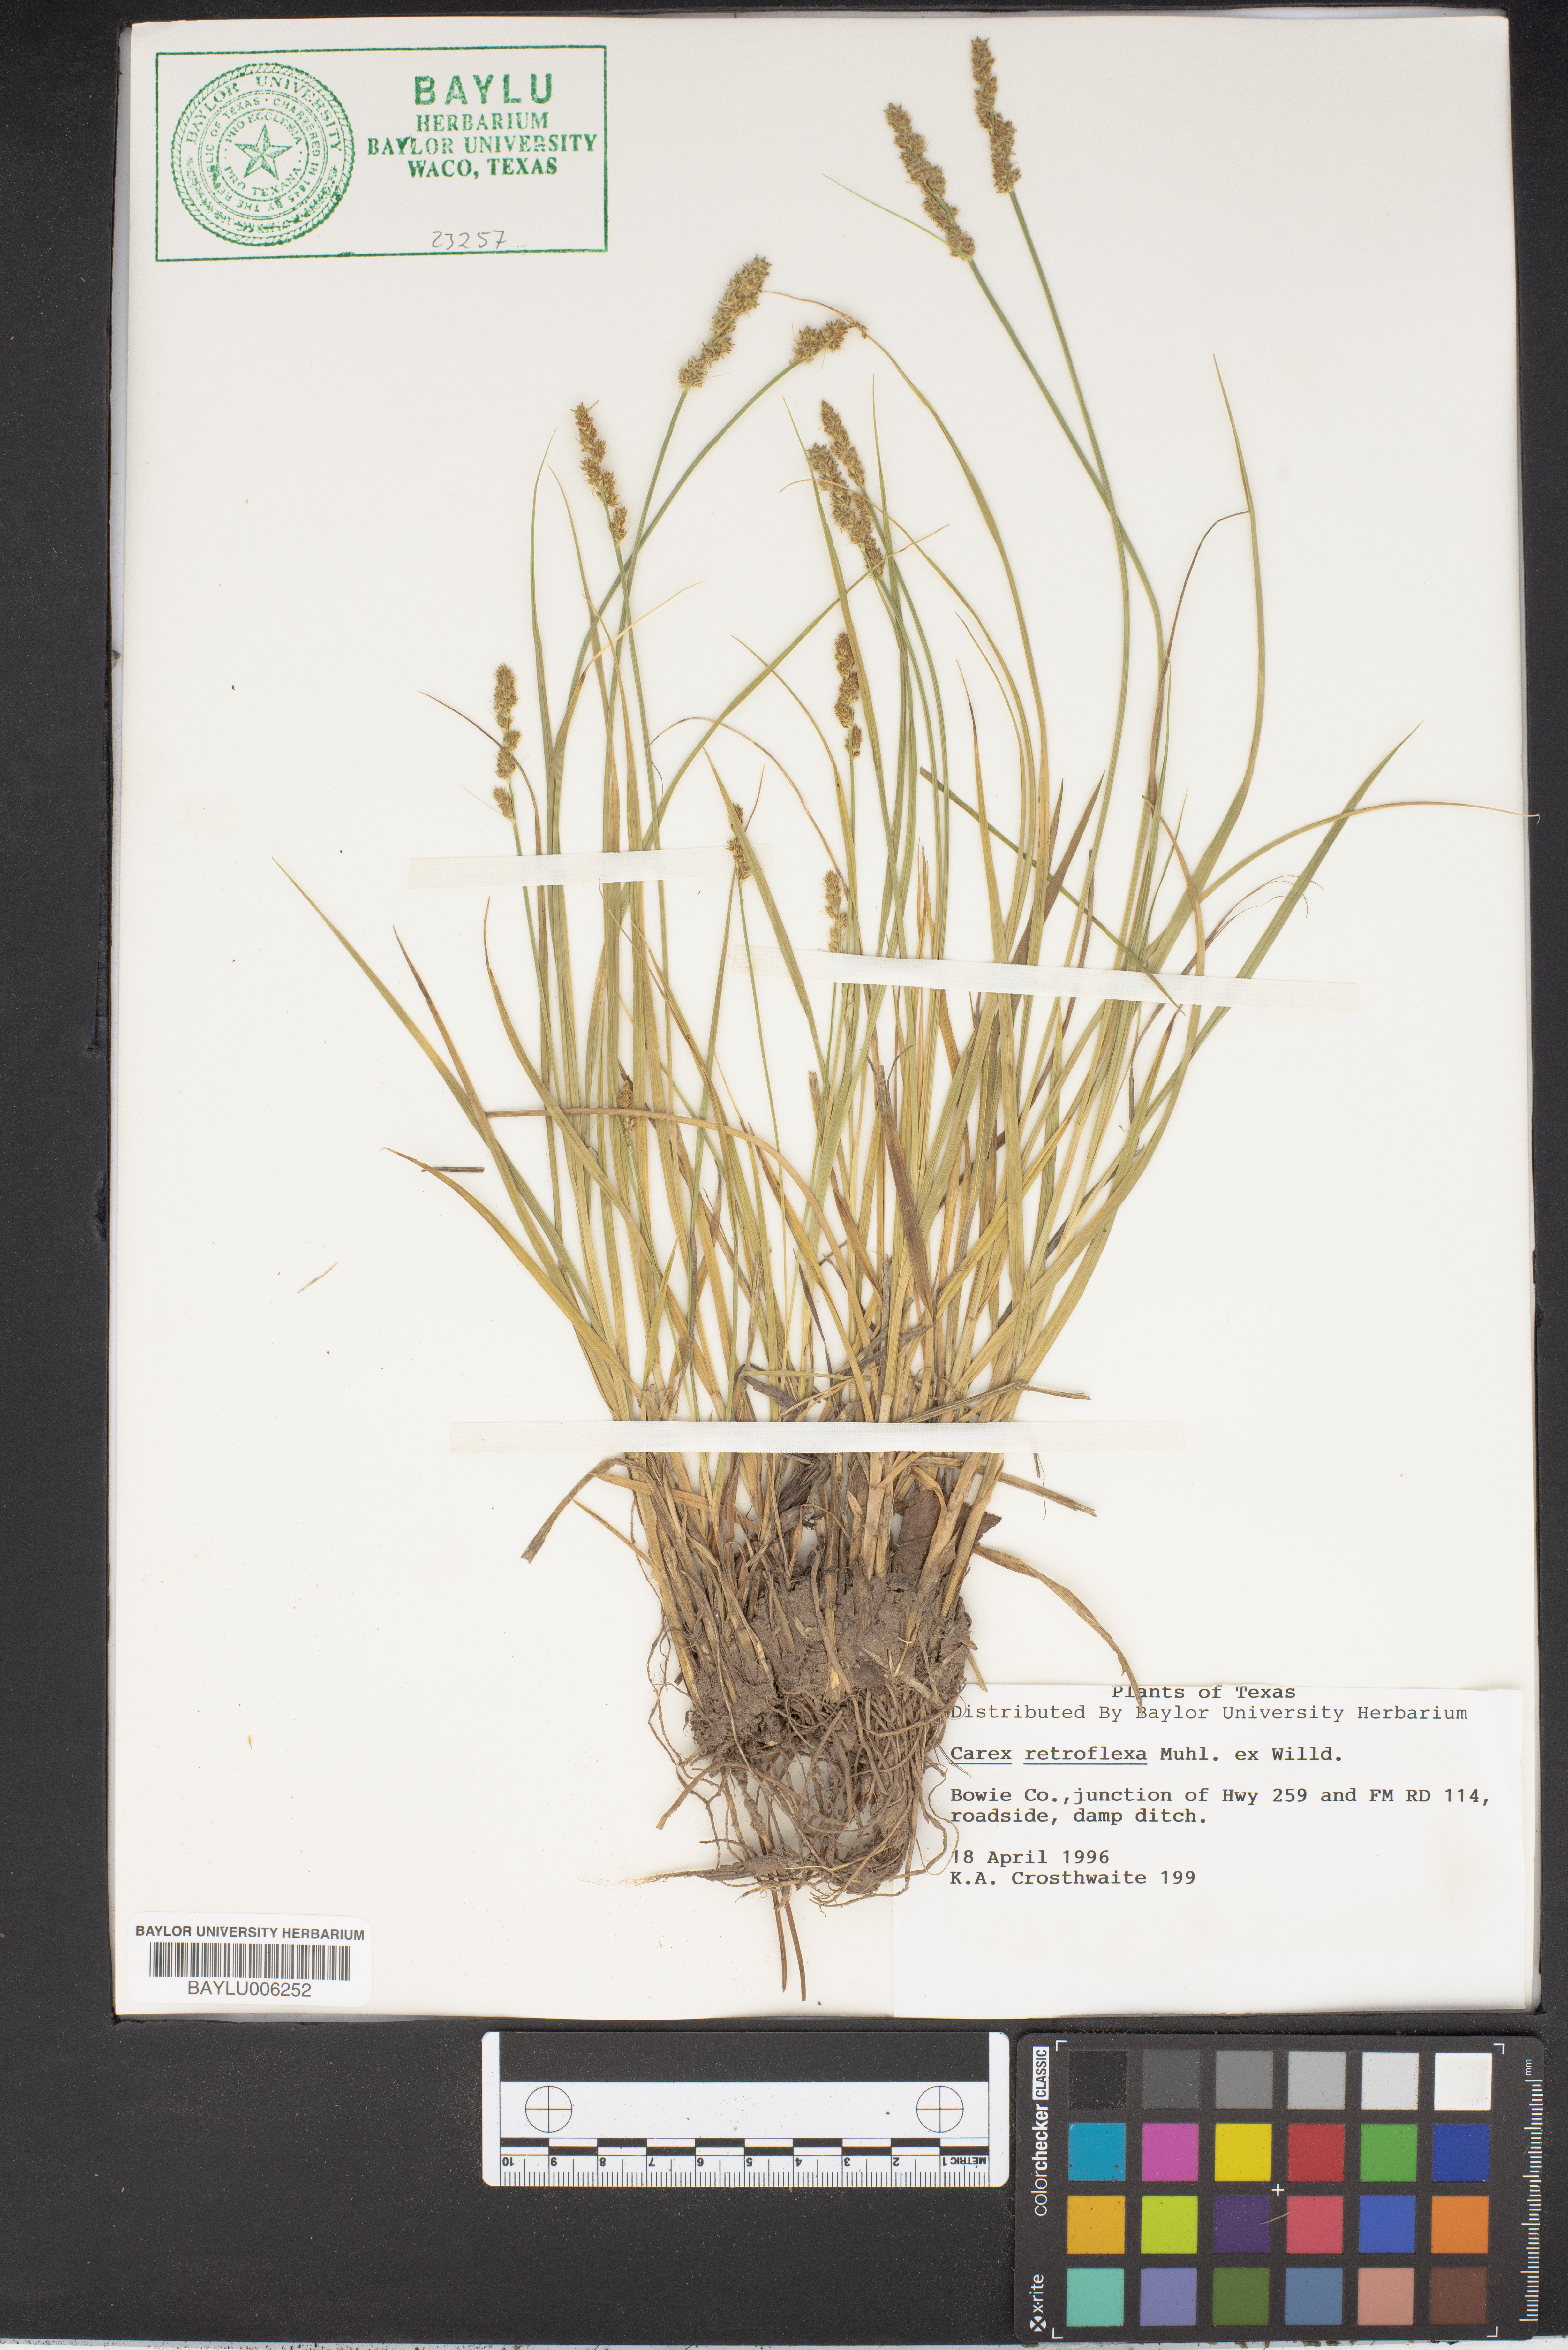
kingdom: Plantae
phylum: Tracheophyta
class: Liliopsida
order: Poales
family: Cyperaceae
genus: Carex
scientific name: Carex retroflexa
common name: Reflexed sedge
